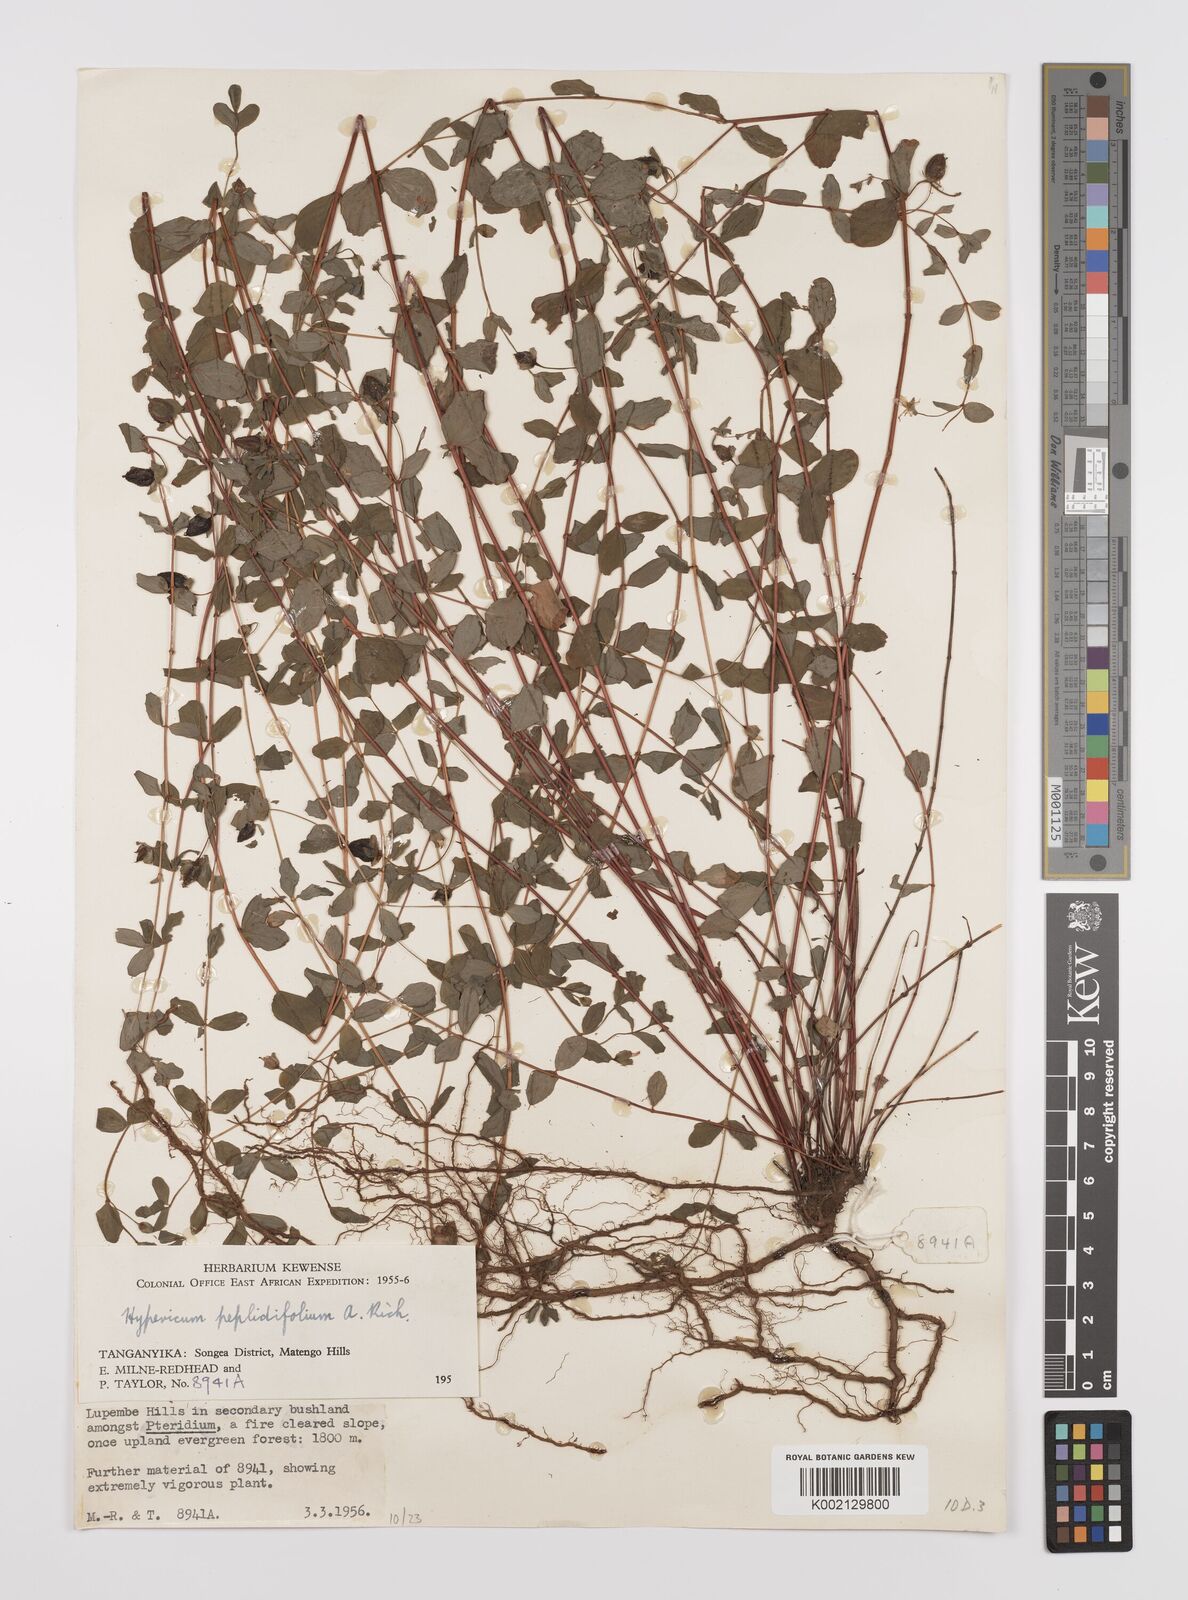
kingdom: Plantae
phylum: Tracheophyta
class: Magnoliopsida
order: Malpighiales
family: Hypericaceae
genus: Hypericum
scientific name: Hypericum peplidifolium
